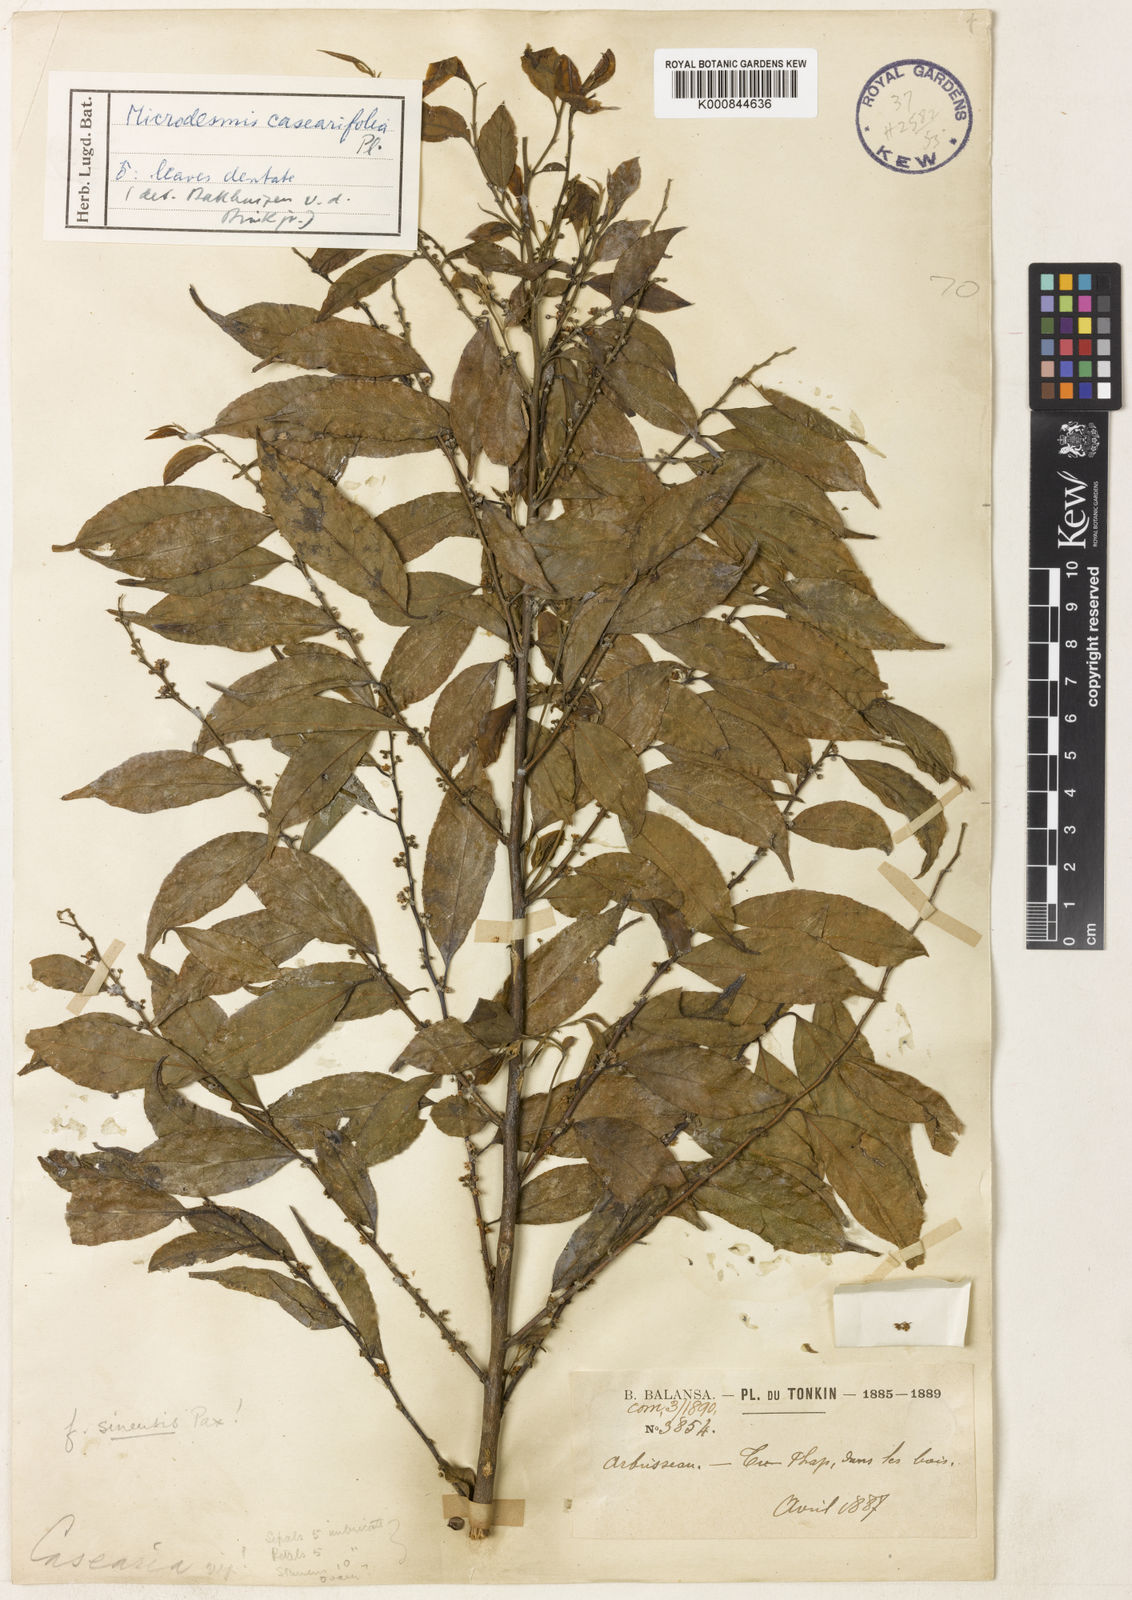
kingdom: Plantae
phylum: Tracheophyta
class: Magnoliopsida
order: Malpighiales
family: Pandaceae
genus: Microdesmis
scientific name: Microdesmis caseariifolia
